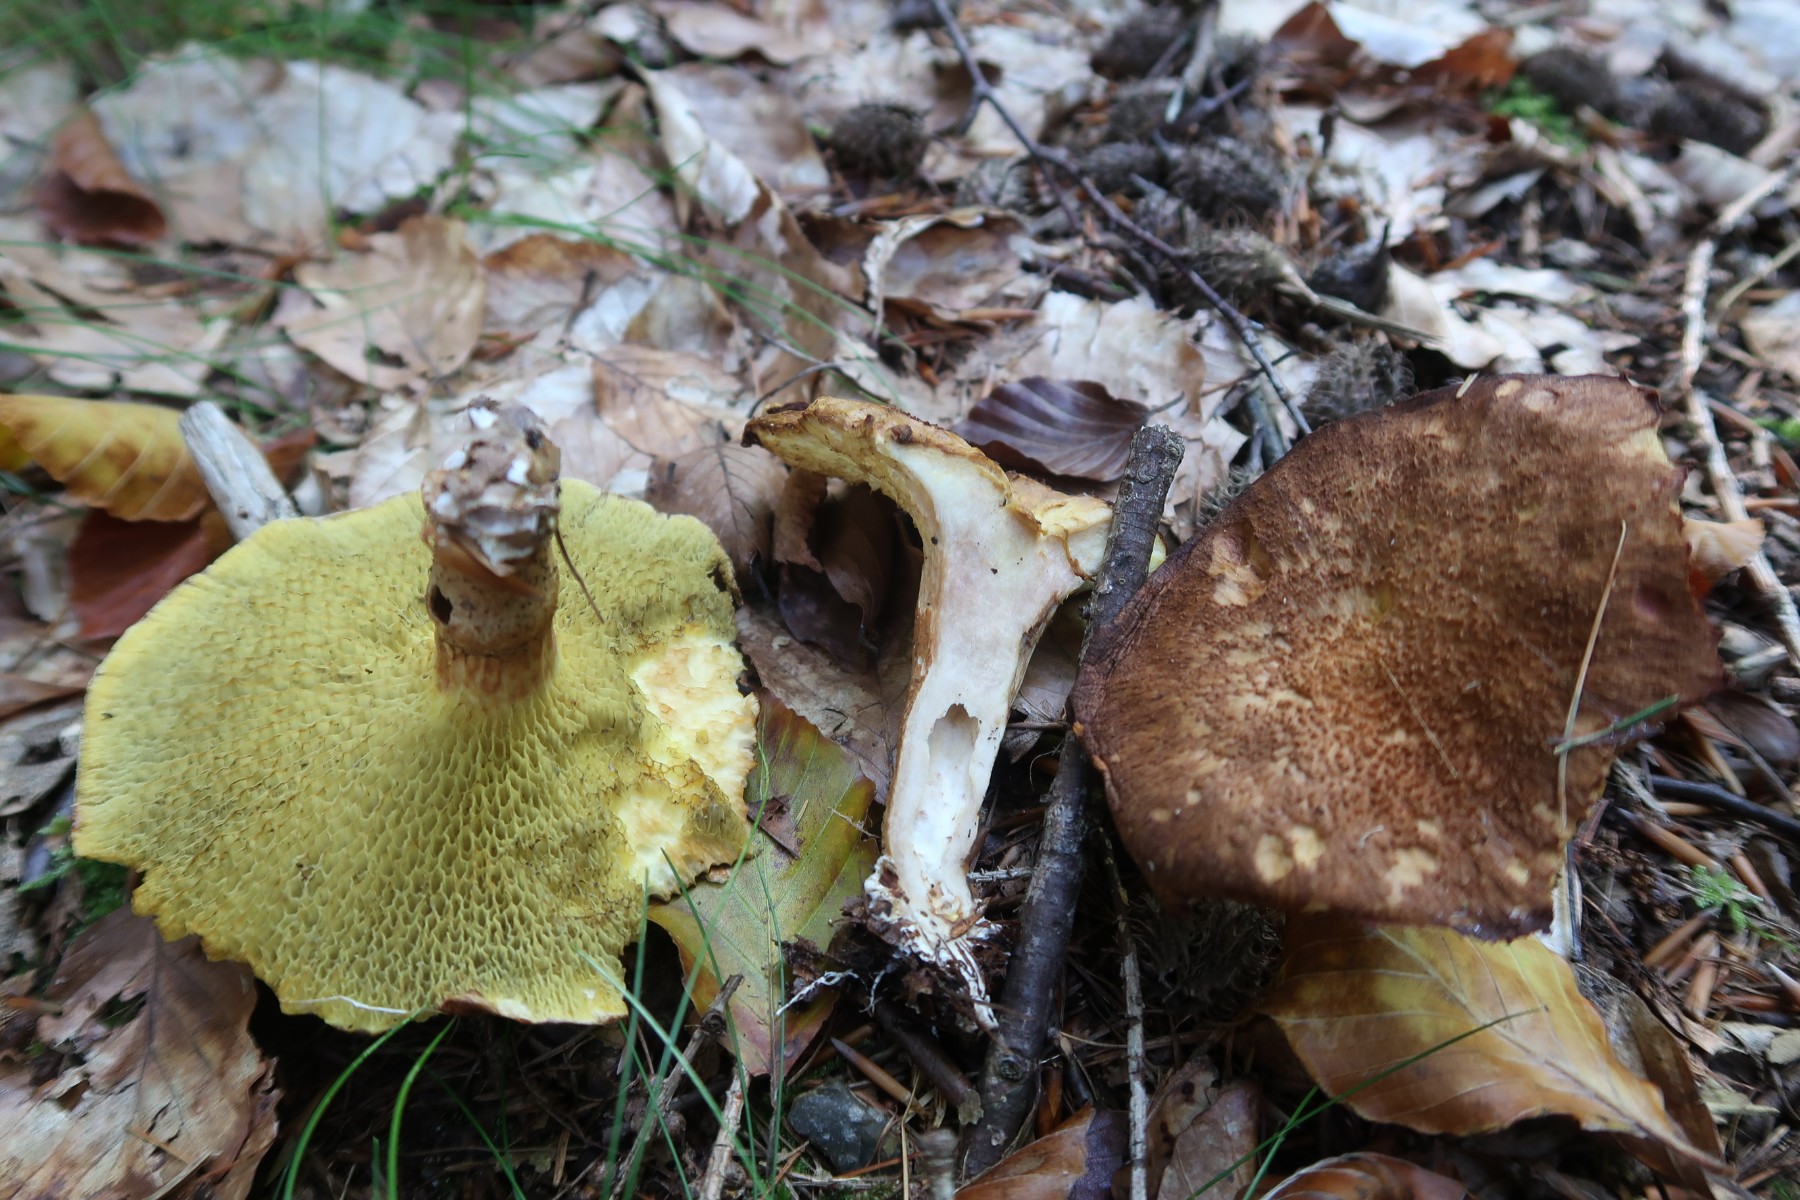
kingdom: Fungi
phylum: Basidiomycota
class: Agaricomycetes
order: Boletales
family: Suillaceae
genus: Suillus
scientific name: Suillus cavipes
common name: hulstokket slimrørhat
